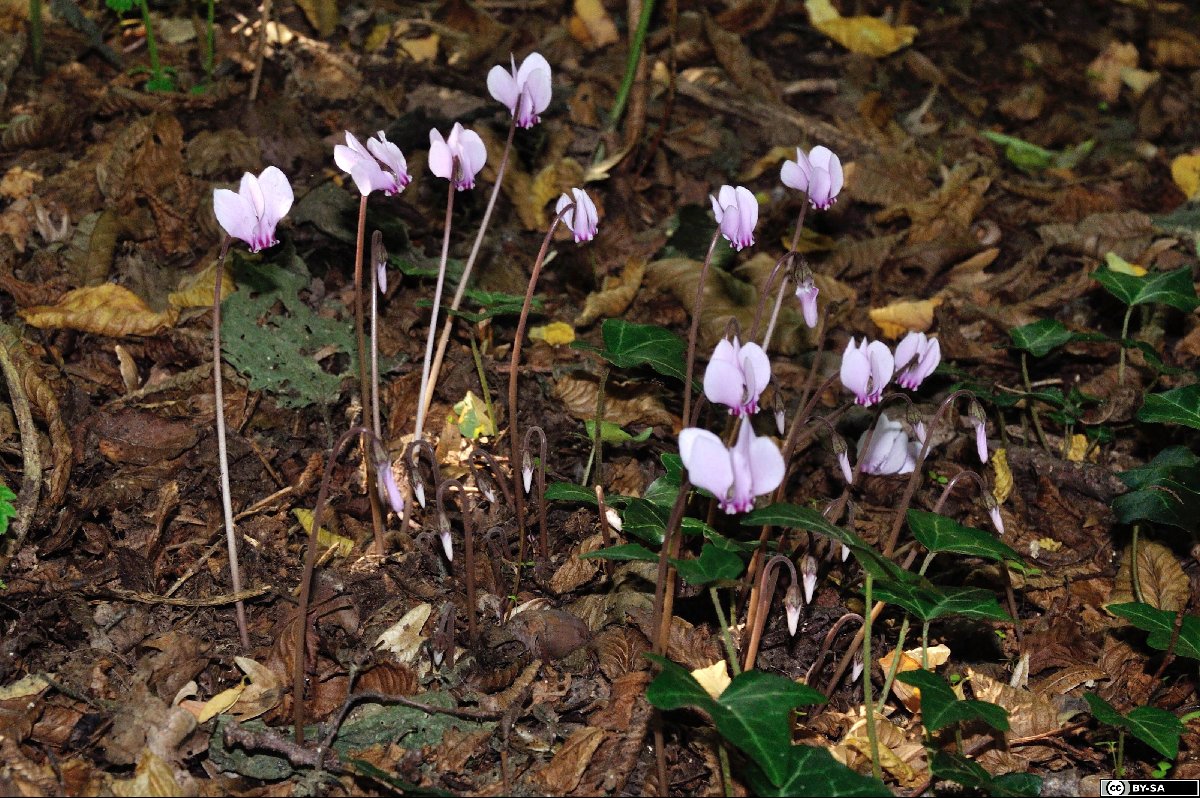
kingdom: Plantae
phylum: Tracheophyta
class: Magnoliopsida
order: Lamiales
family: Lamiaceae
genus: Ballota
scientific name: Ballota nigra
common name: Black horehound
